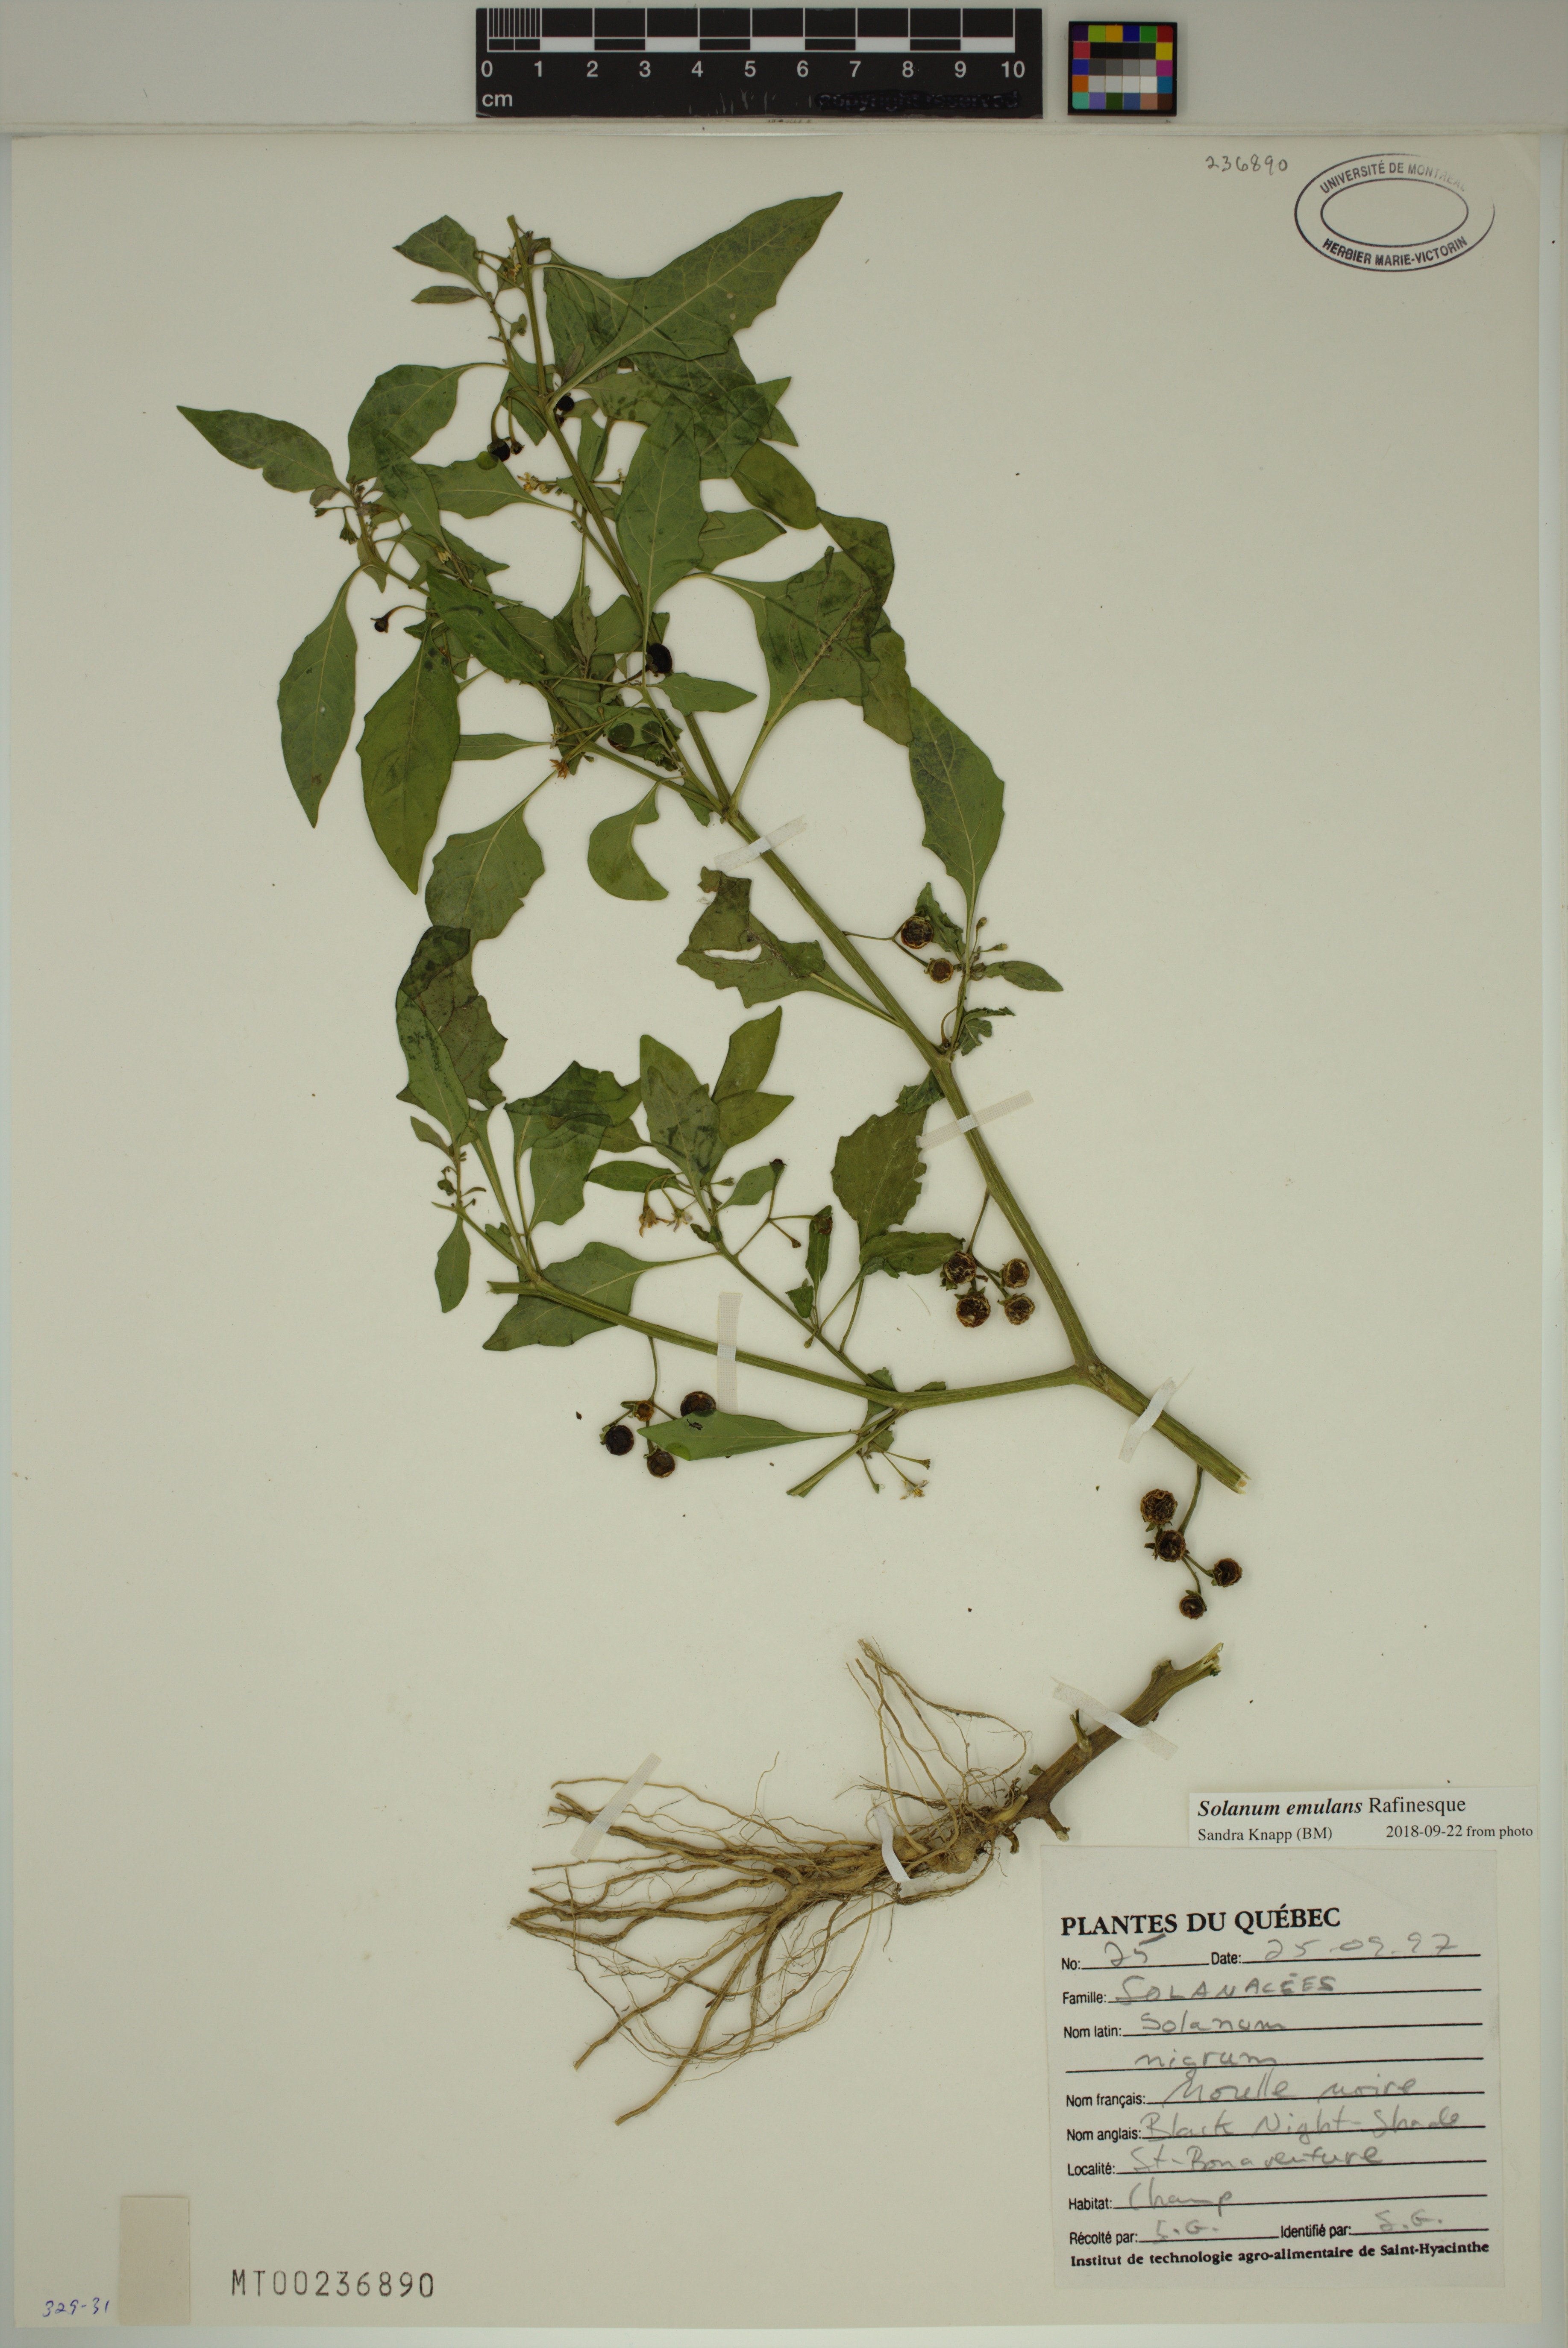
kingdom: Plantae
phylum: Tracheophyta
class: Magnoliopsida
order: Solanales
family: Solanaceae
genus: Solanum
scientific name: Solanum emulans
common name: Eastern black nightshade
